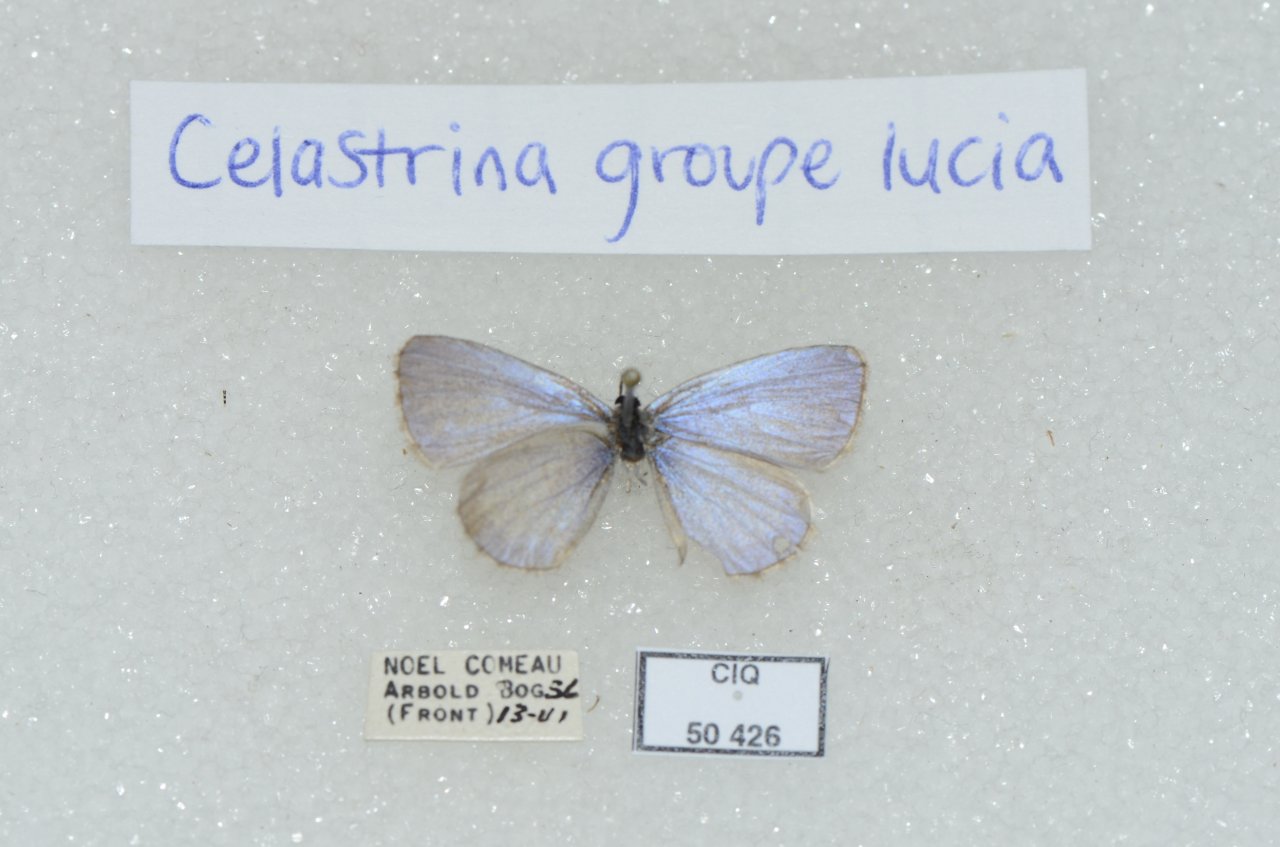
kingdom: Animalia
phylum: Arthropoda
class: Insecta
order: Lepidoptera
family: Lycaenidae
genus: Celastrina
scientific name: Celastrina lucia
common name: Northern Spring Azure
